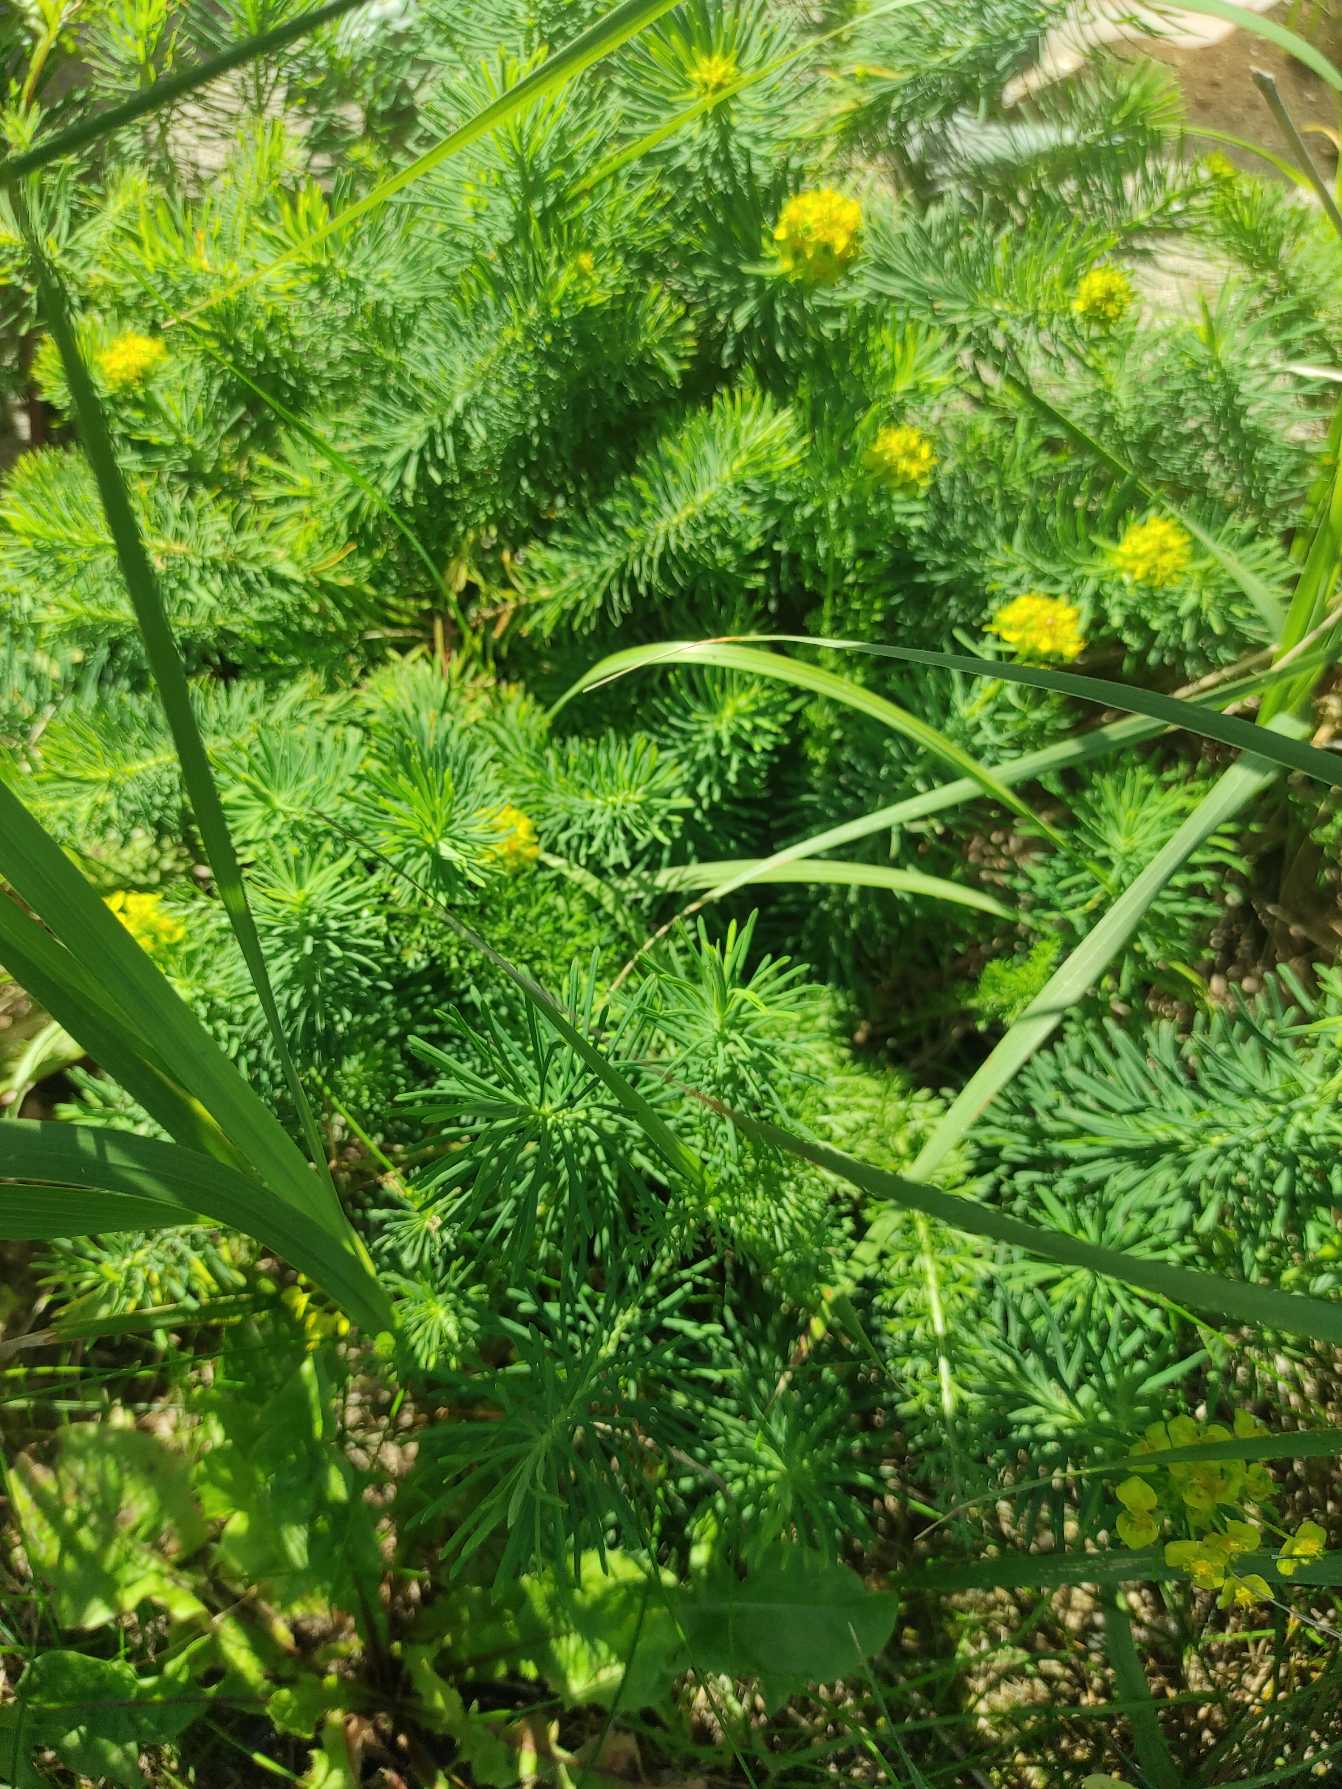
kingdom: Plantae
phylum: Tracheophyta
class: Magnoliopsida
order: Malpighiales
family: Euphorbiaceae
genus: Euphorbia
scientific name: Euphorbia cyparissias
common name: Cypres-vortemælk
